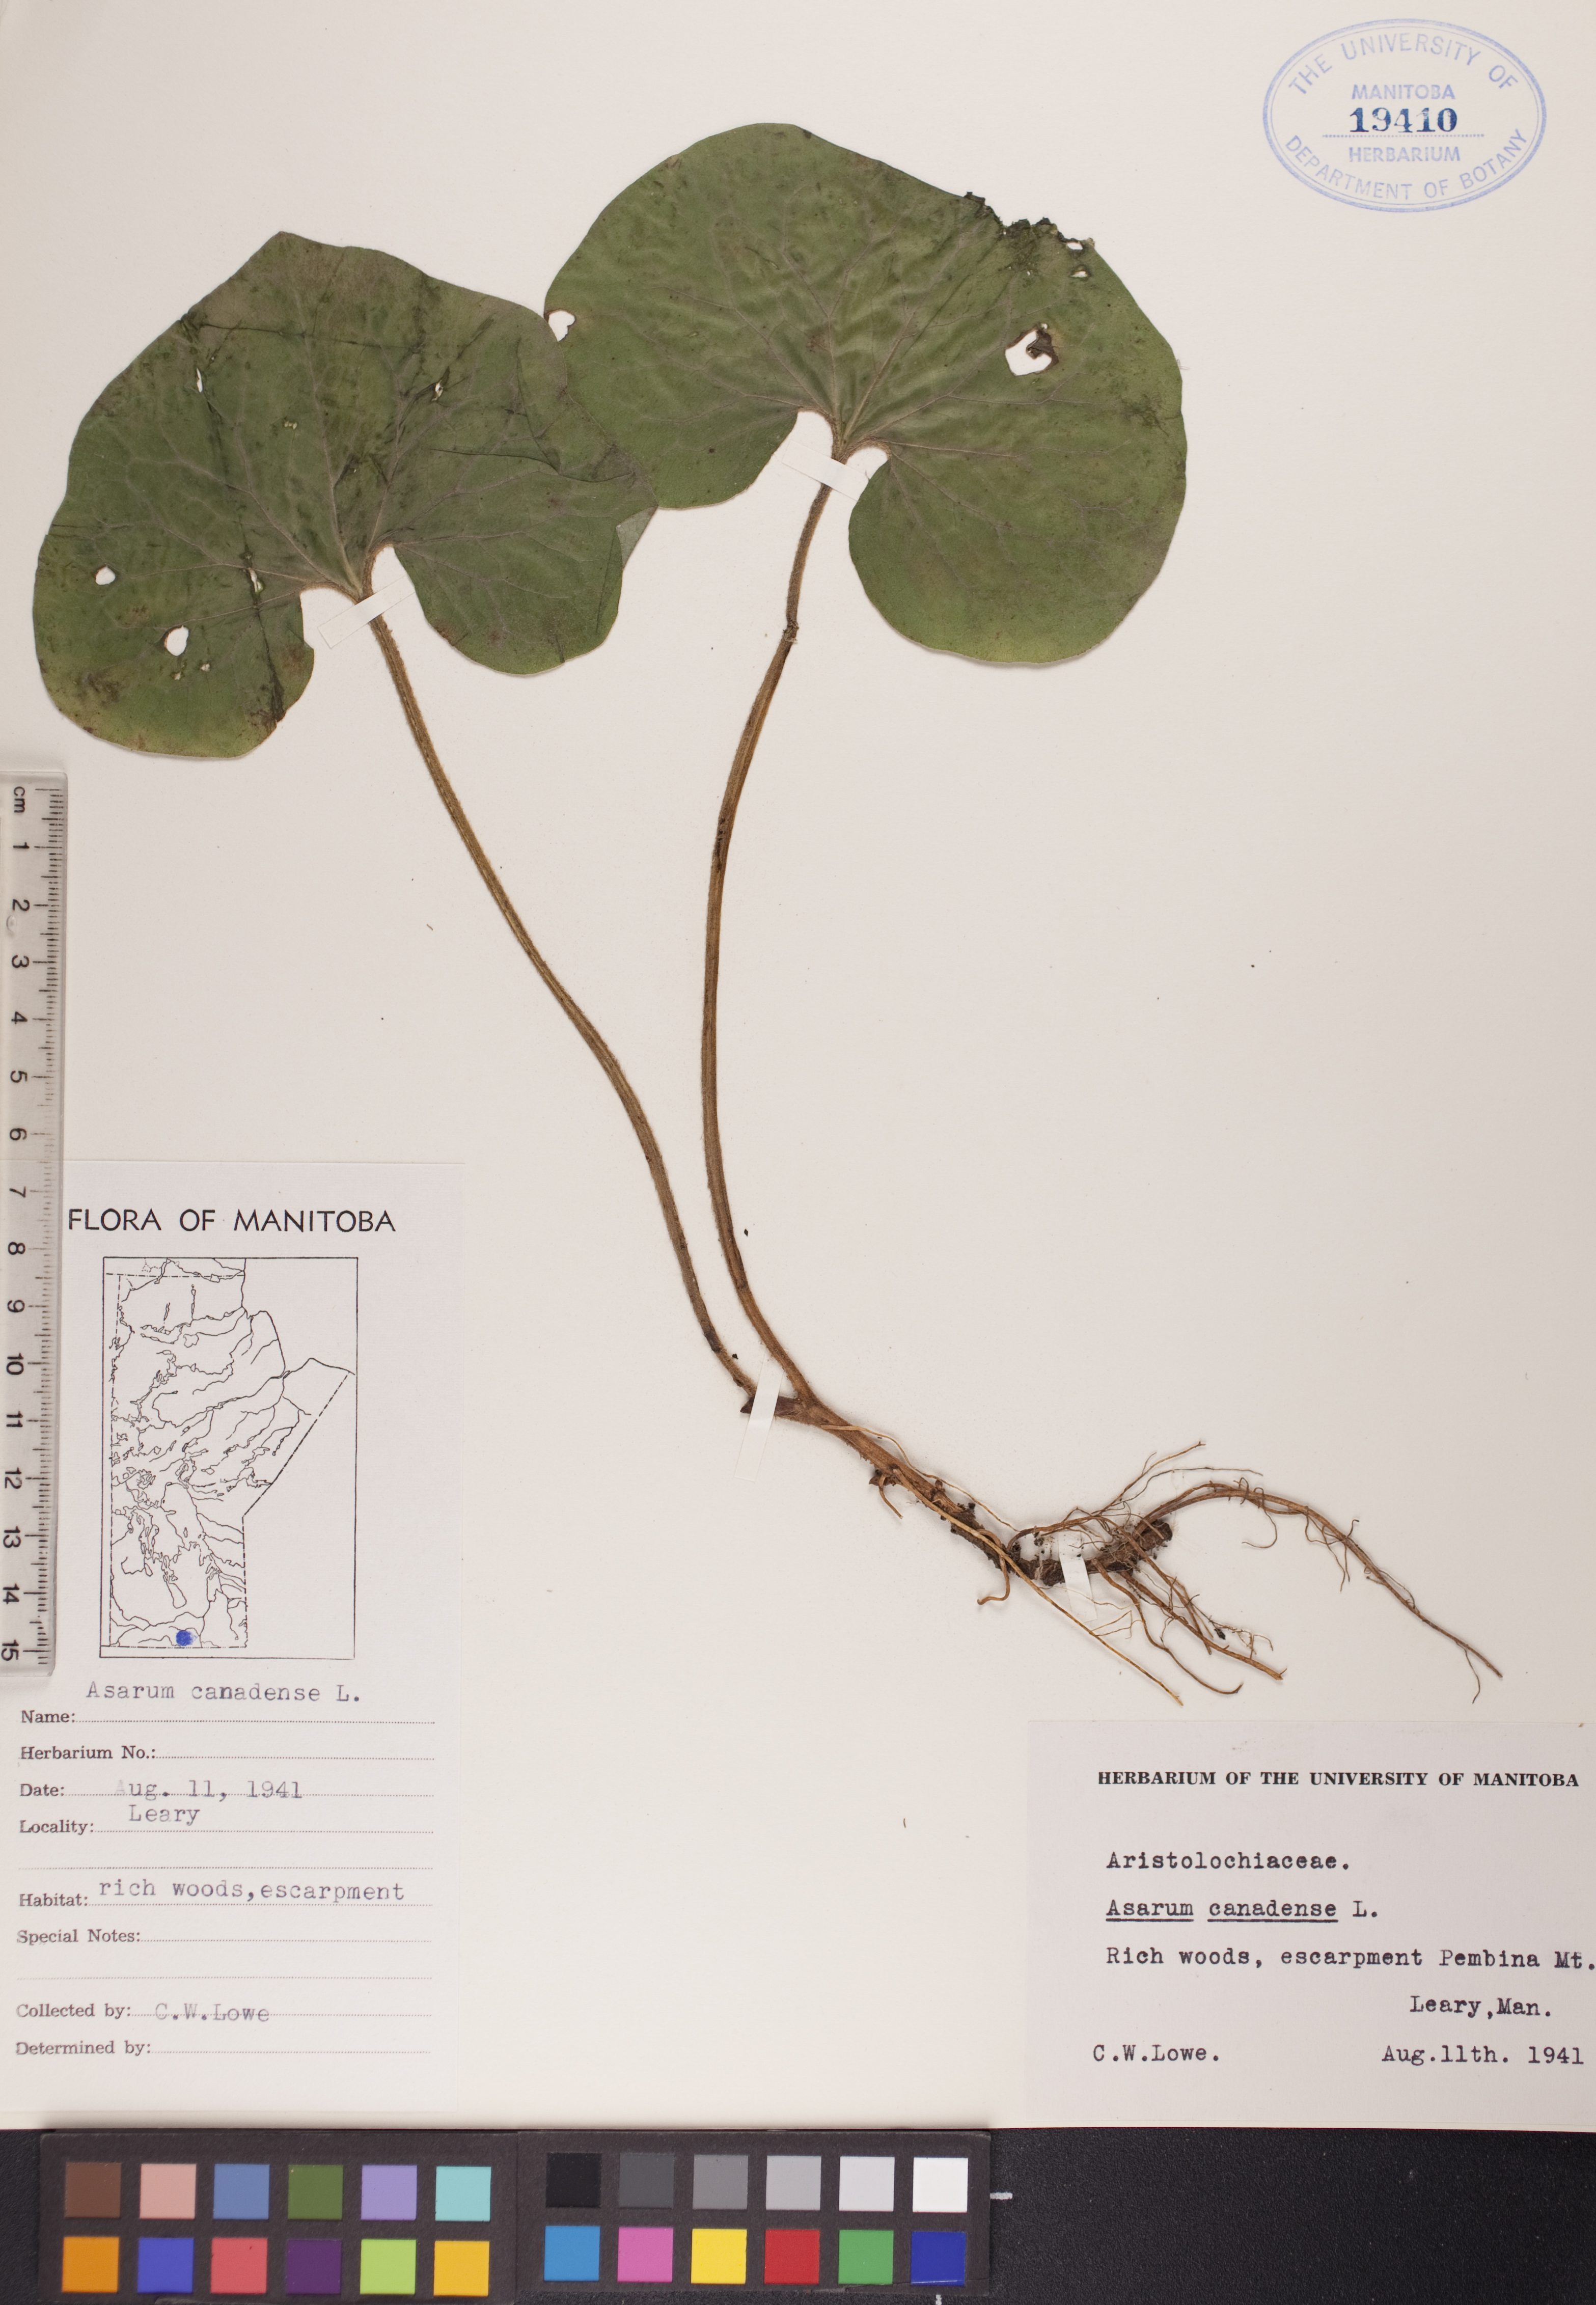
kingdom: Plantae
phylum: Tracheophyta
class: Magnoliopsida
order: Piperales
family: Aristolochiaceae
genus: Asarum
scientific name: Asarum canadense
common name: Wild ginger
